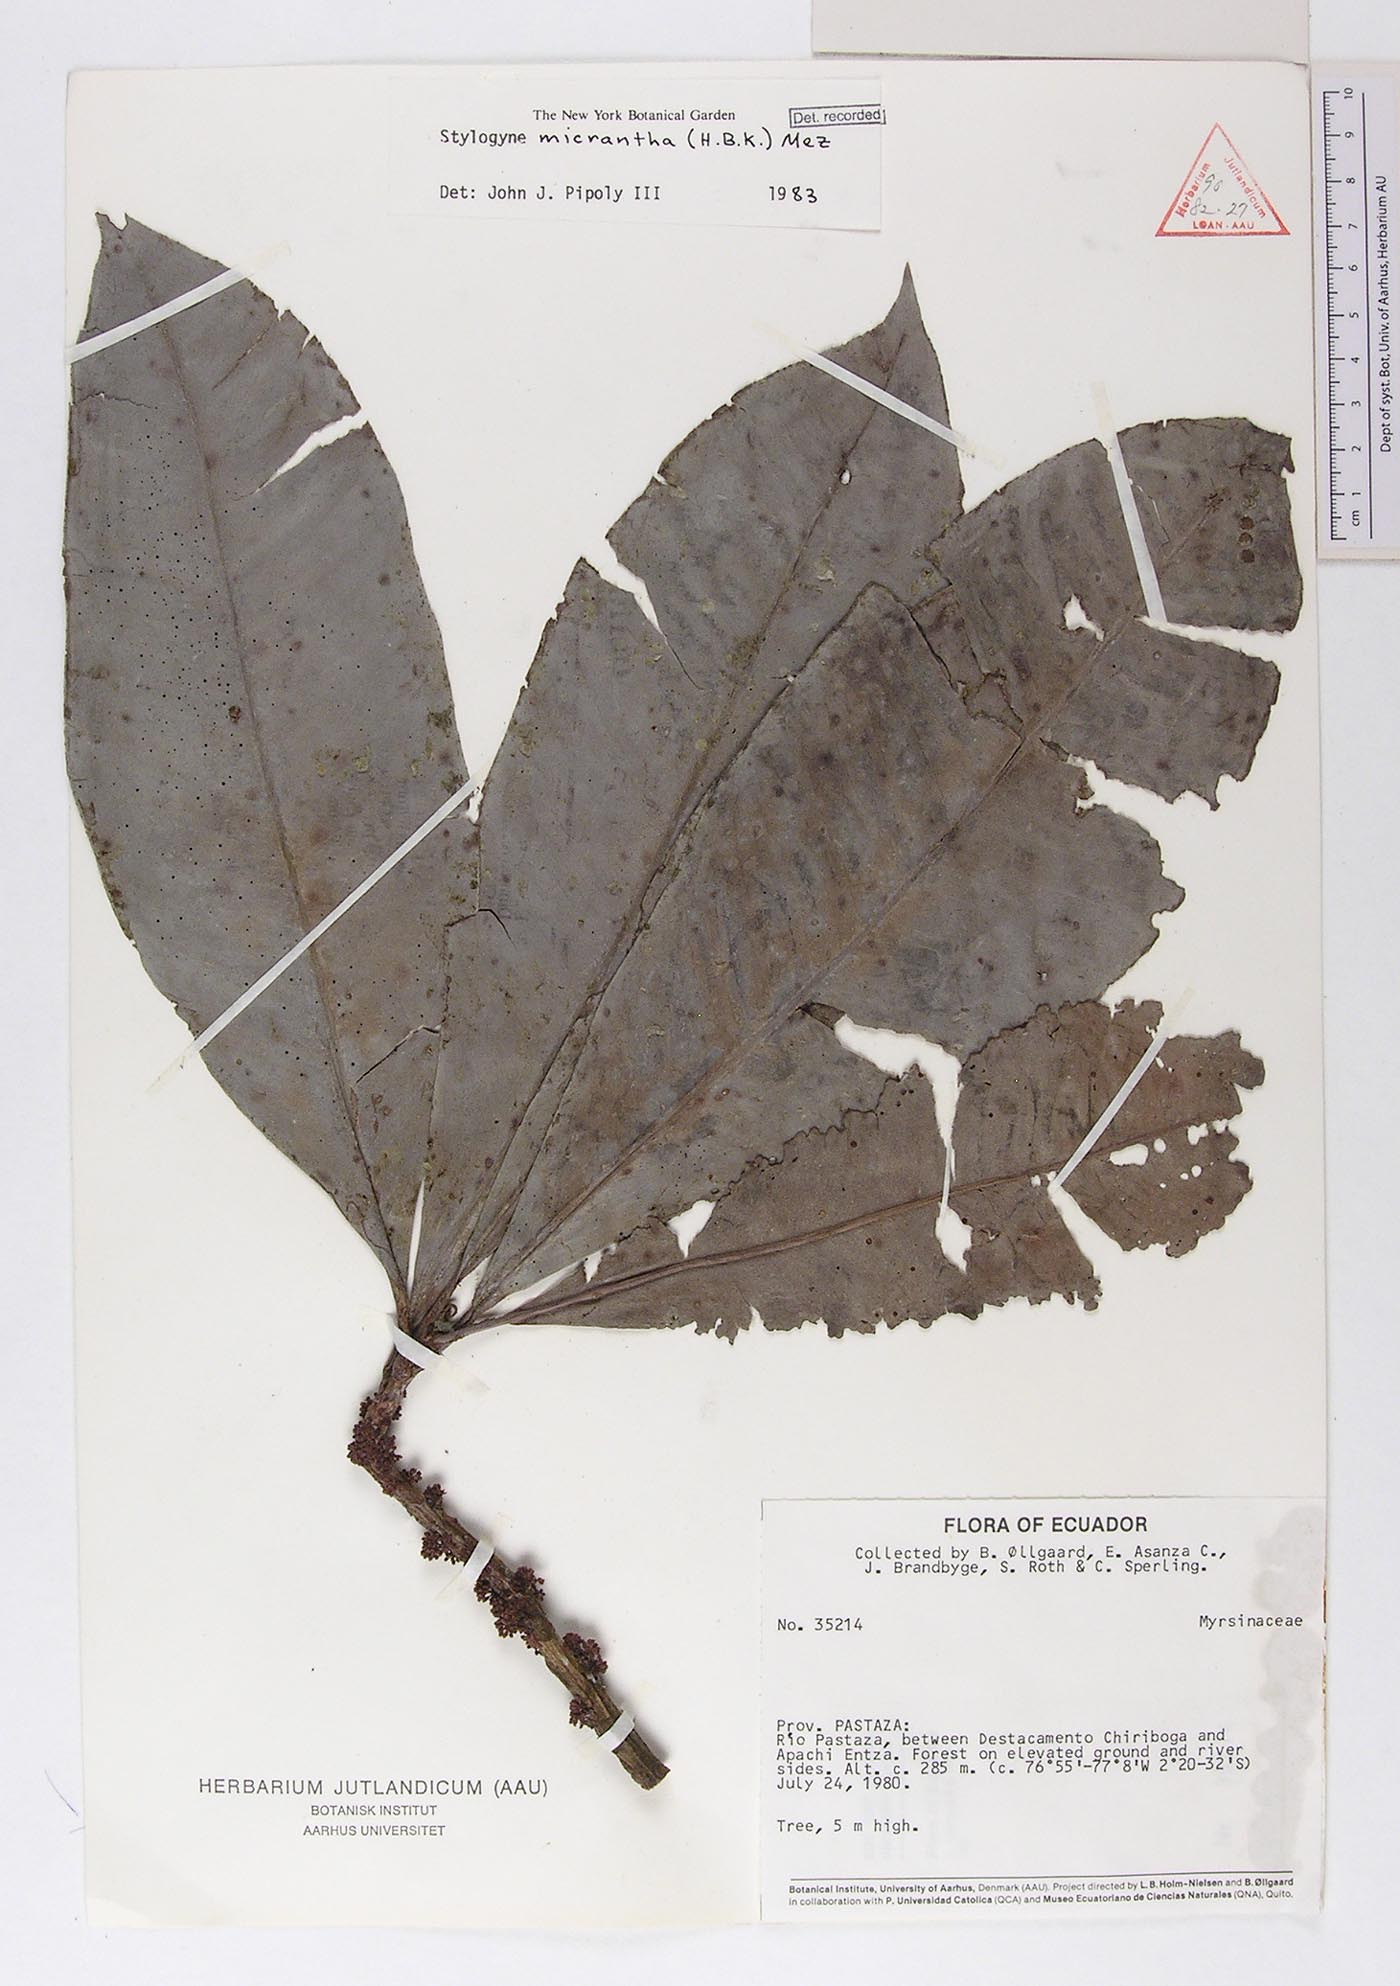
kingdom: Plantae
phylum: Tracheophyta
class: Magnoliopsida
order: Ericales
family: Primulaceae
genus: Stylogyne
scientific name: Stylogyne micrantha
